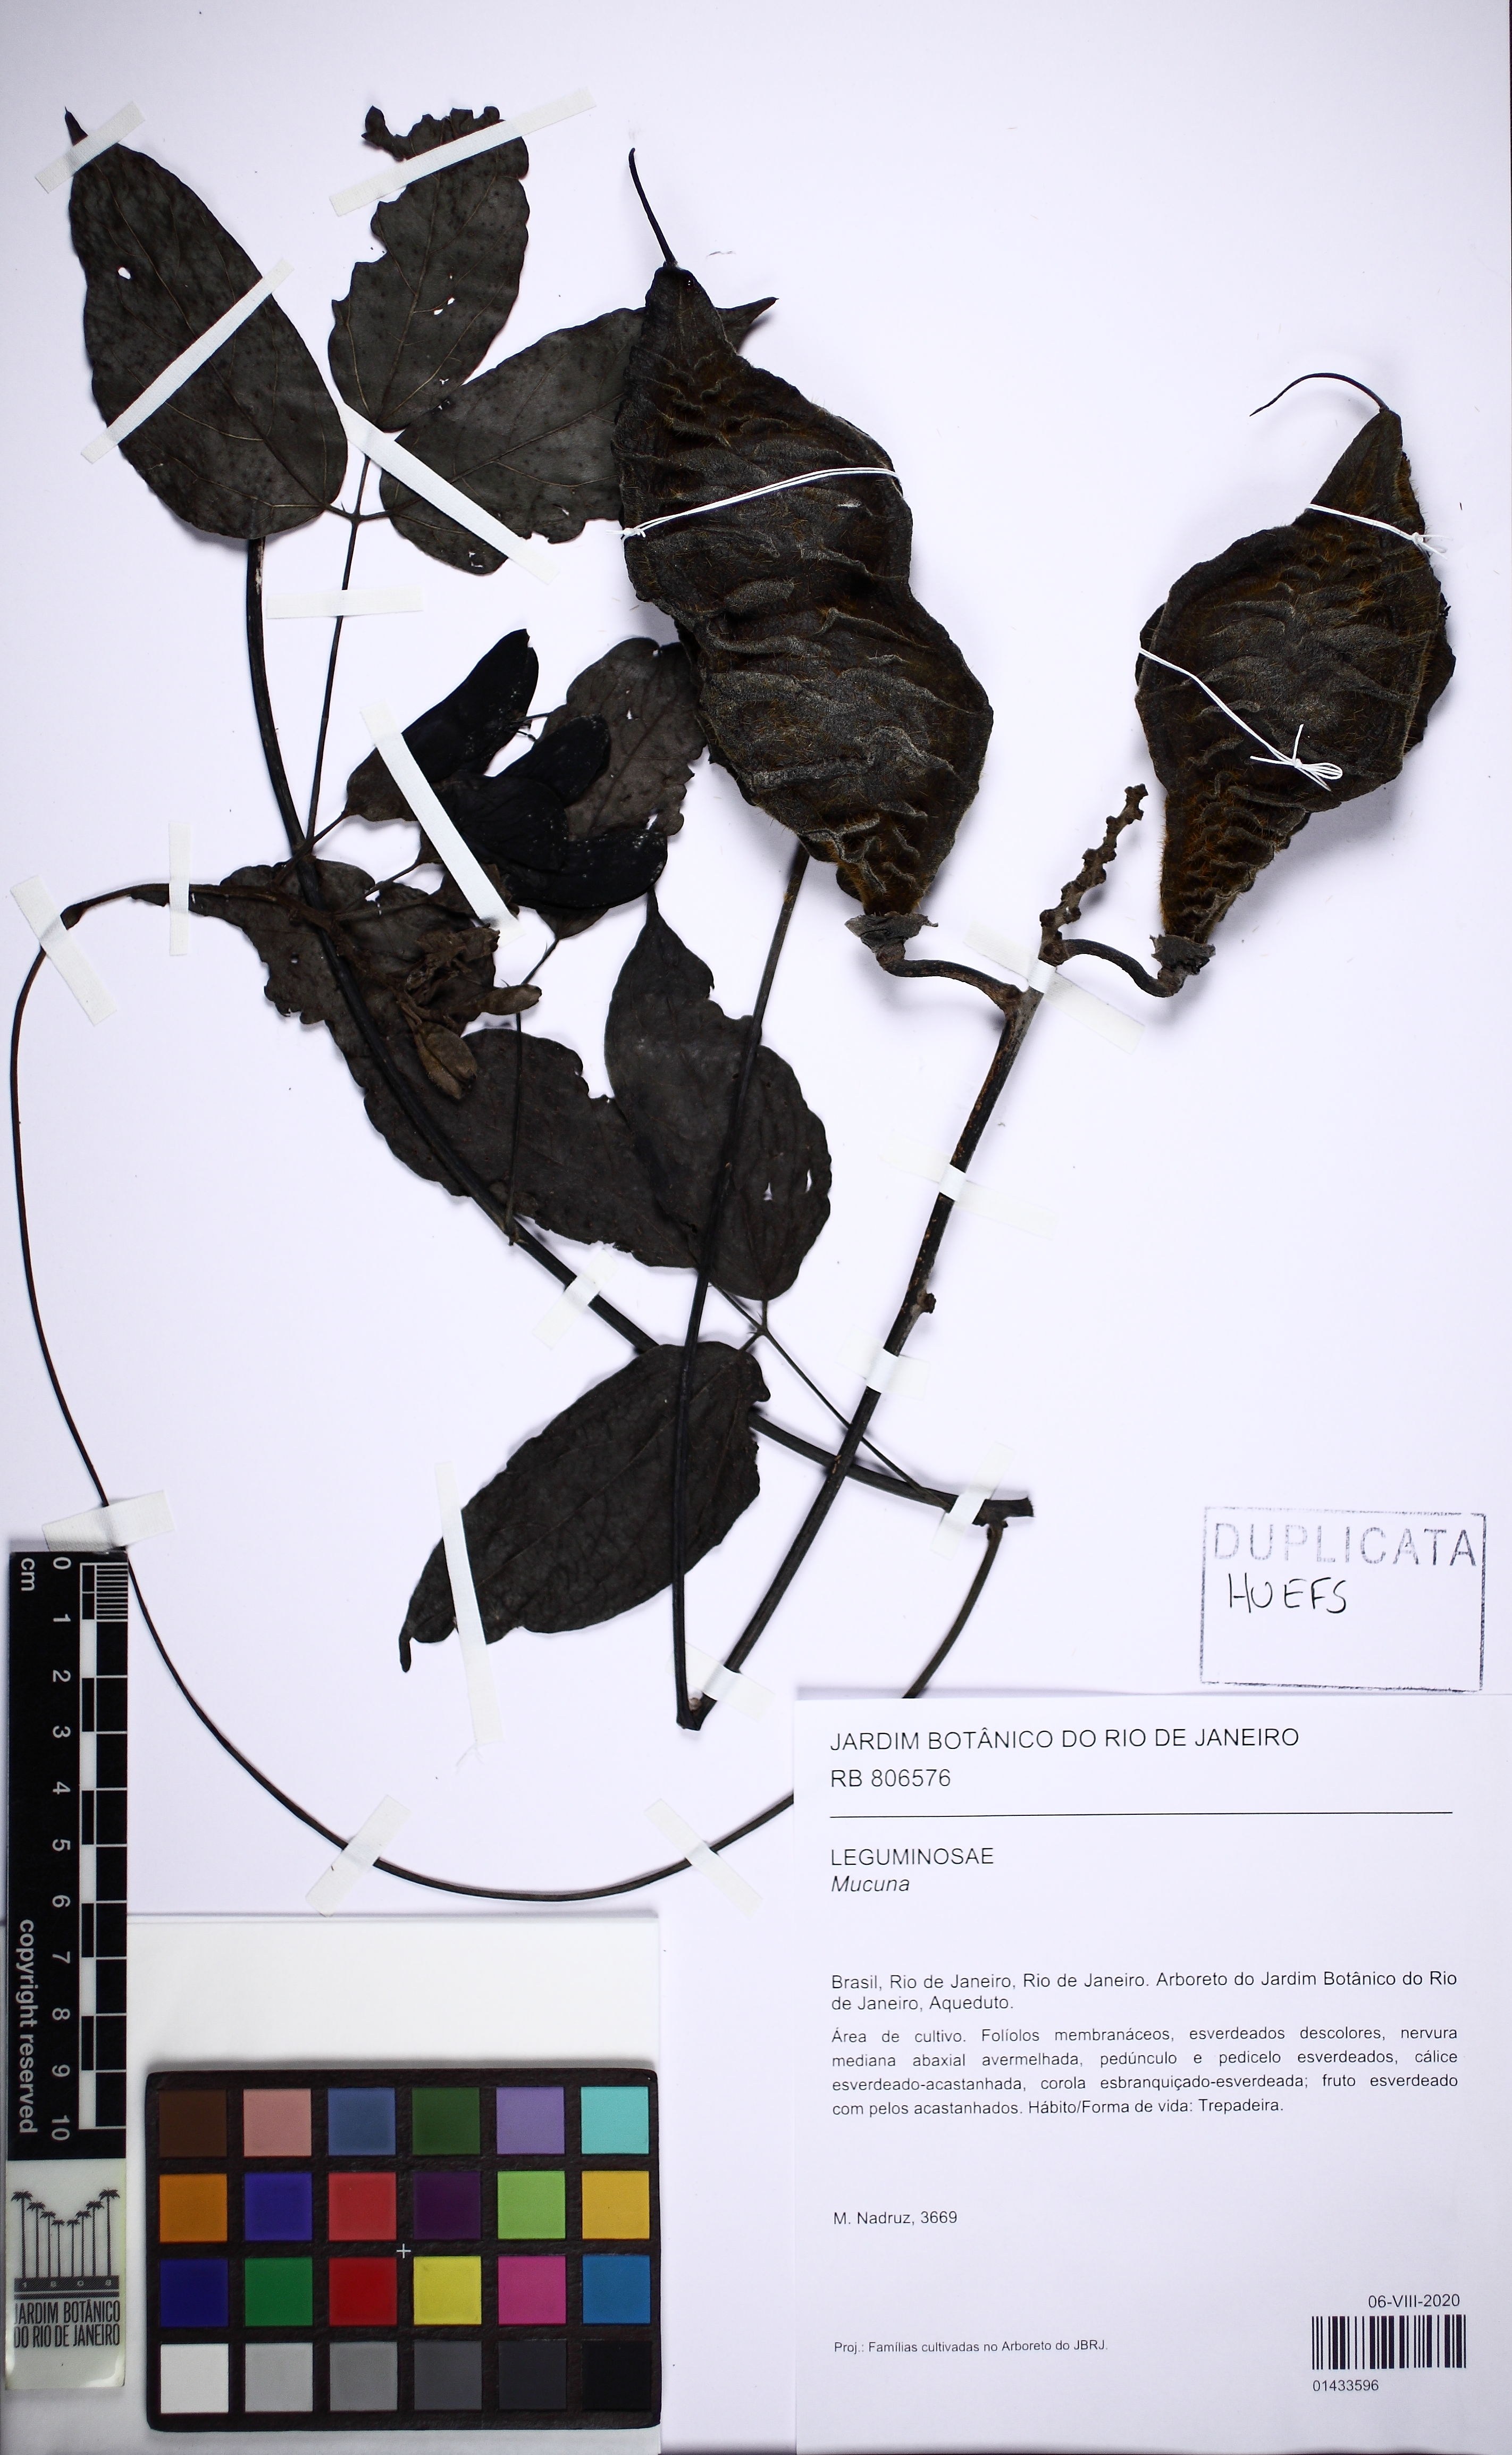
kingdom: Plantae
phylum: Tracheophyta
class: Magnoliopsida
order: Fabales
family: Fabaceae
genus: Mucuna
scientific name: Mucuna
